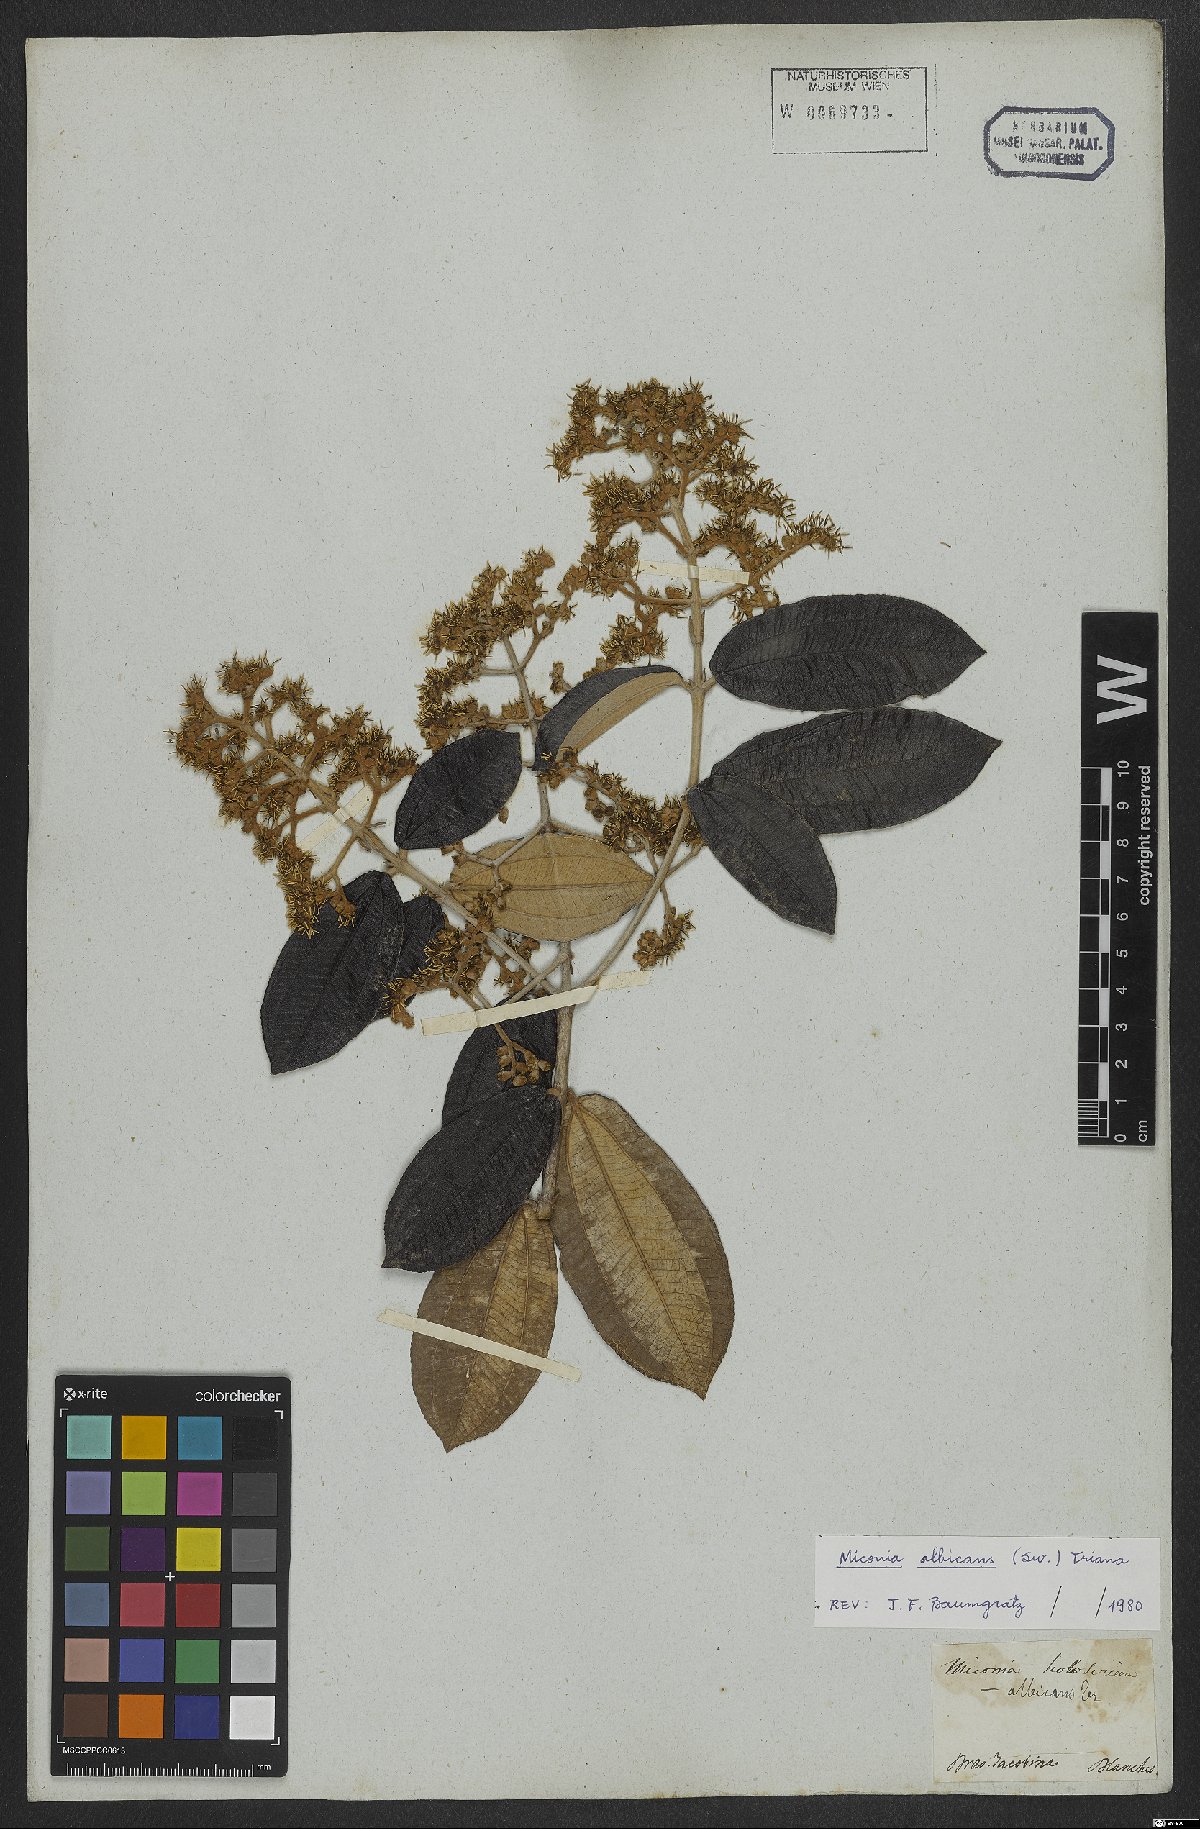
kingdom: Plantae
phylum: Tracheophyta
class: Magnoliopsida
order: Myrtales
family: Melastomataceae
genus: Miconia
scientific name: Miconia albicans
